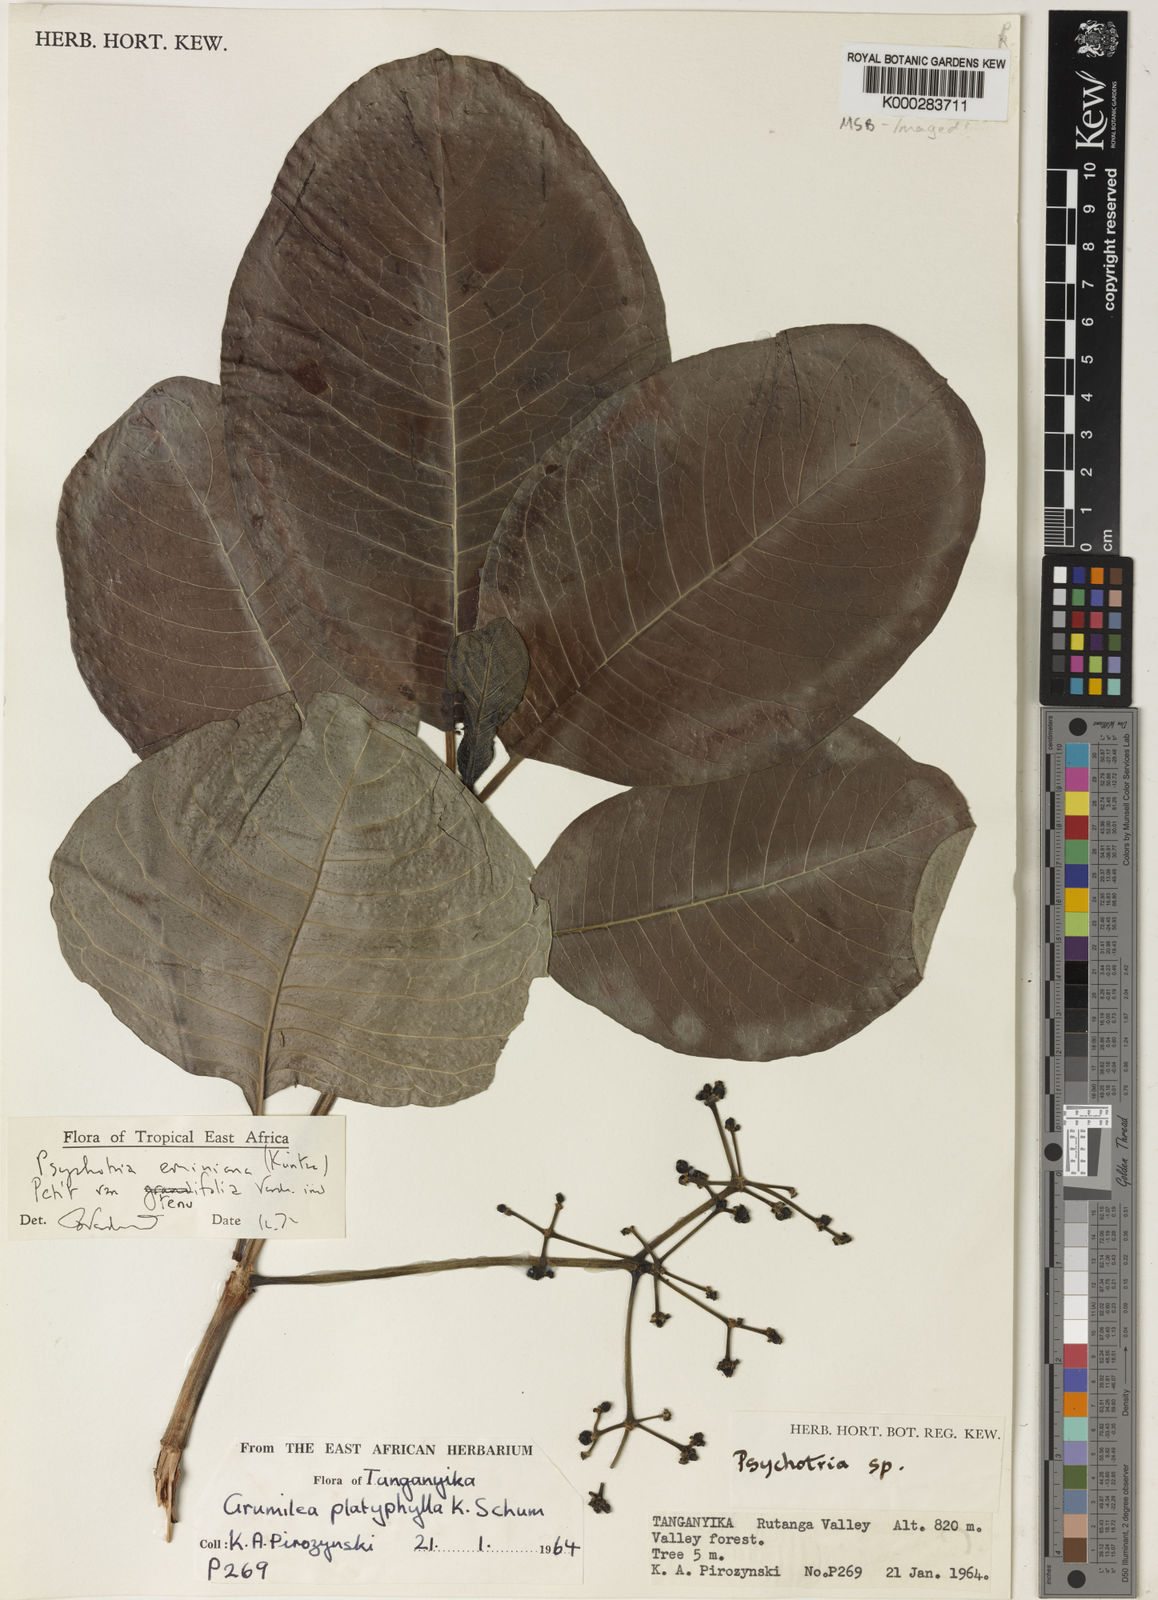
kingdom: Plantae
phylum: Tracheophyta
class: Magnoliopsida
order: Gentianales
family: Rubiaceae
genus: Psychotria
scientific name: Psychotria eminiana
